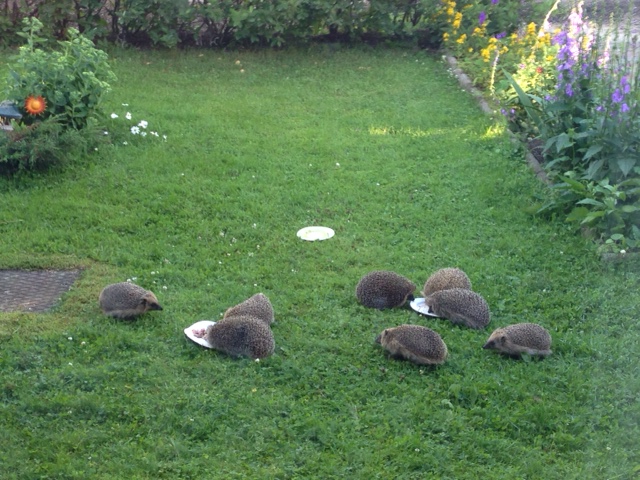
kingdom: Animalia
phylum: Chordata
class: Mammalia
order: Erinaceomorpha
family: Erinaceidae
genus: Erinaceus
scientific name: Erinaceus europaeus
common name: West european hedgehog
